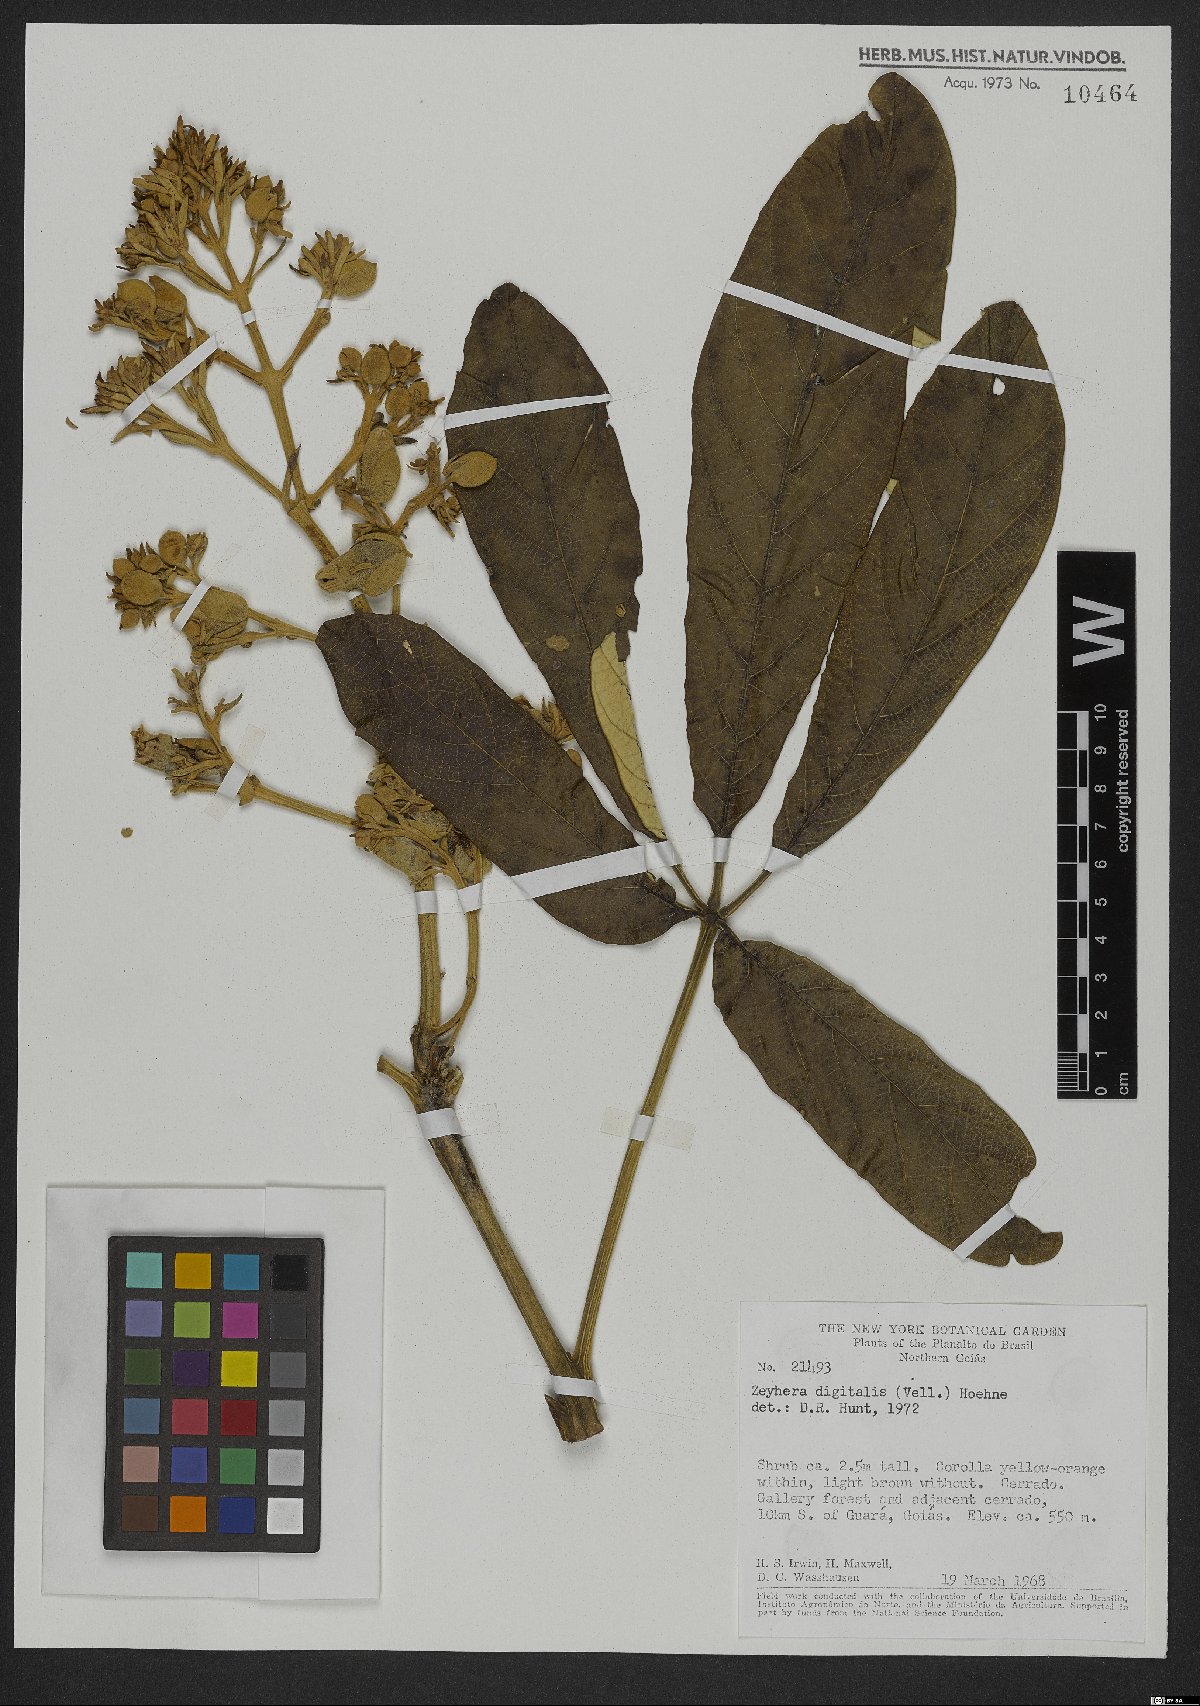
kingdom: Plantae
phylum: Tracheophyta
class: Magnoliopsida
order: Lamiales
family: Bignoniaceae
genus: Zeyheria
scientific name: Zeyheria montana
